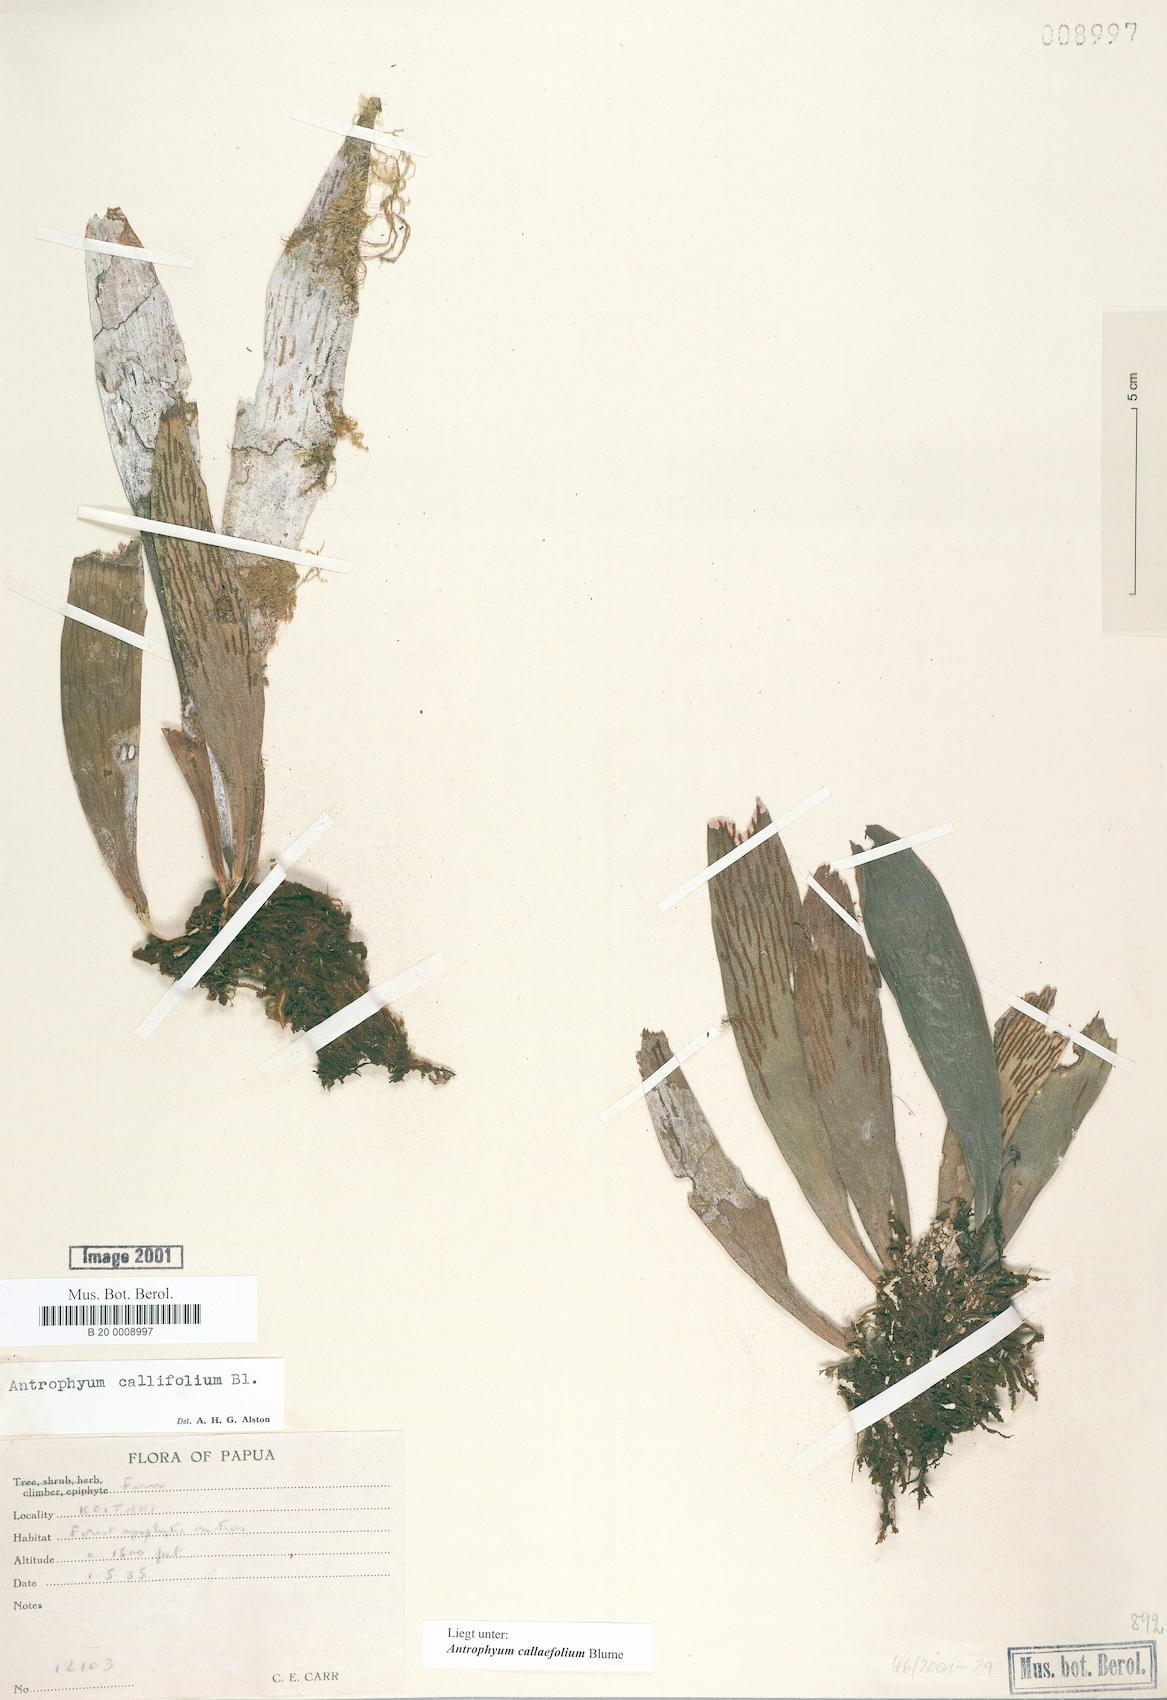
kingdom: Plantae
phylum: Tracheophyta
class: Polypodiopsida
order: Polypodiales
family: Pteridaceae
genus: Antrophyum
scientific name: Antrophyum callifolium
